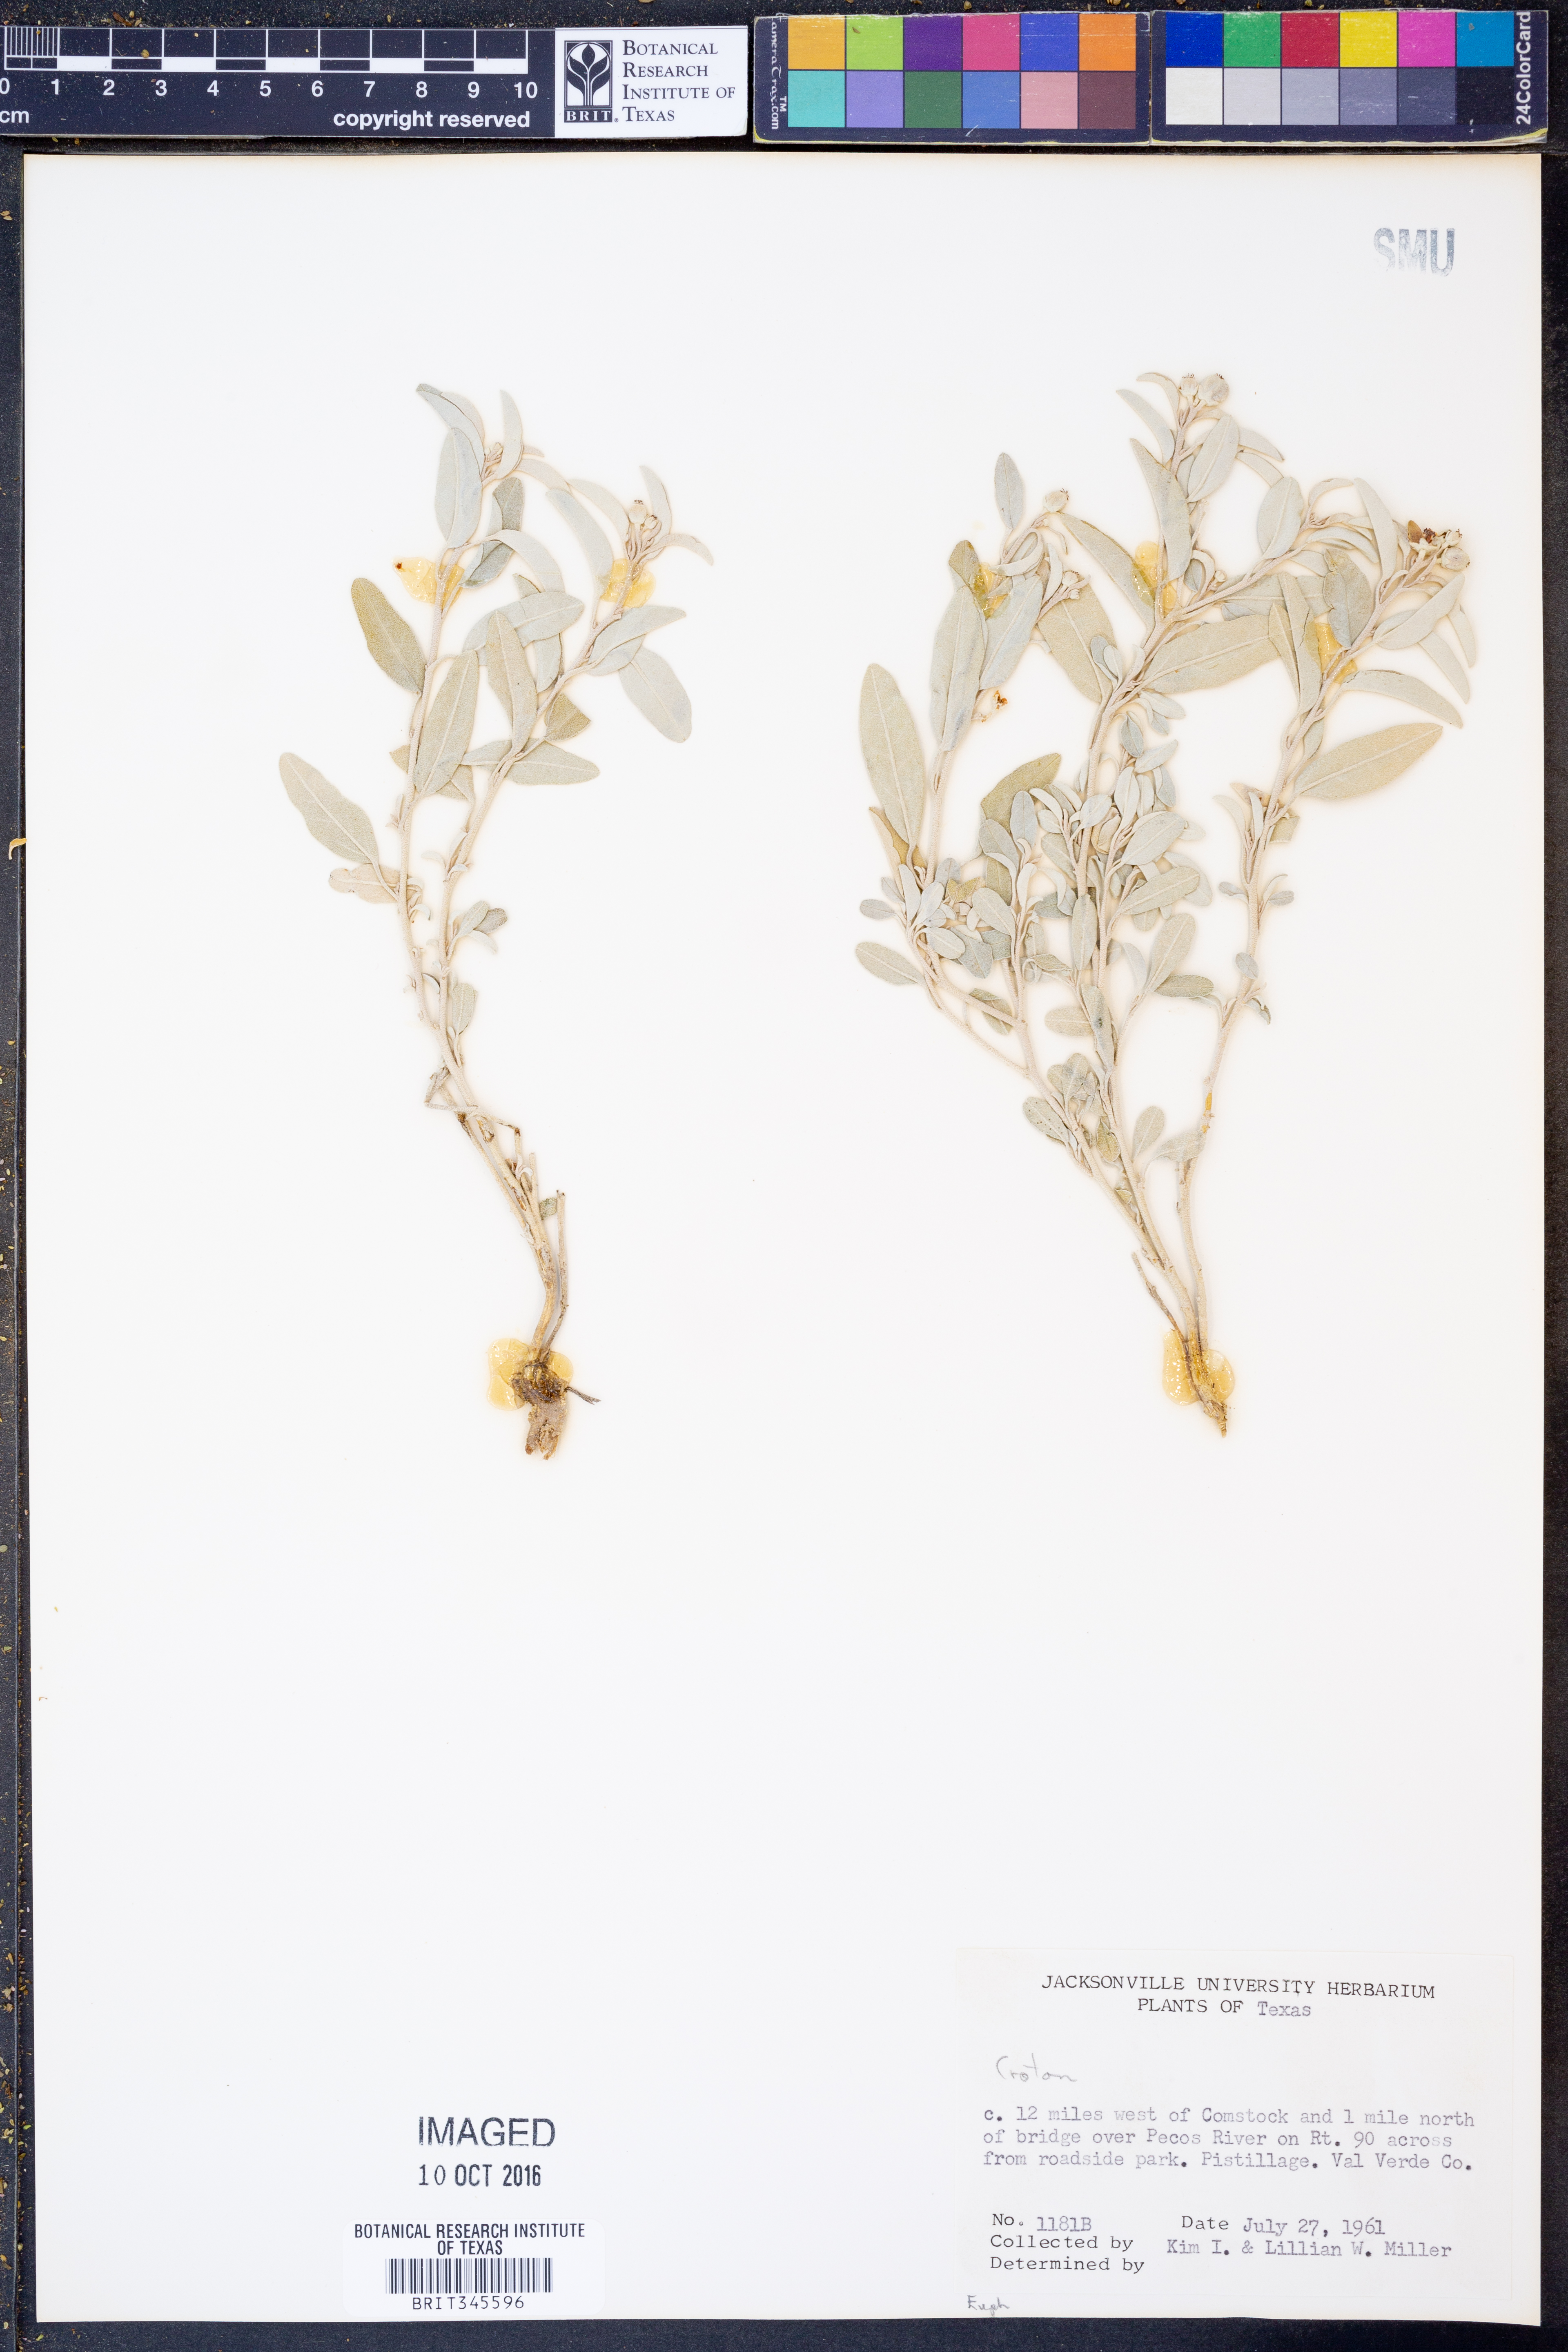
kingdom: Plantae
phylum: Tracheophyta
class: Magnoliopsida
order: Malpighiales
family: Euphorbiaceae
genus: Croton
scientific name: Croton
